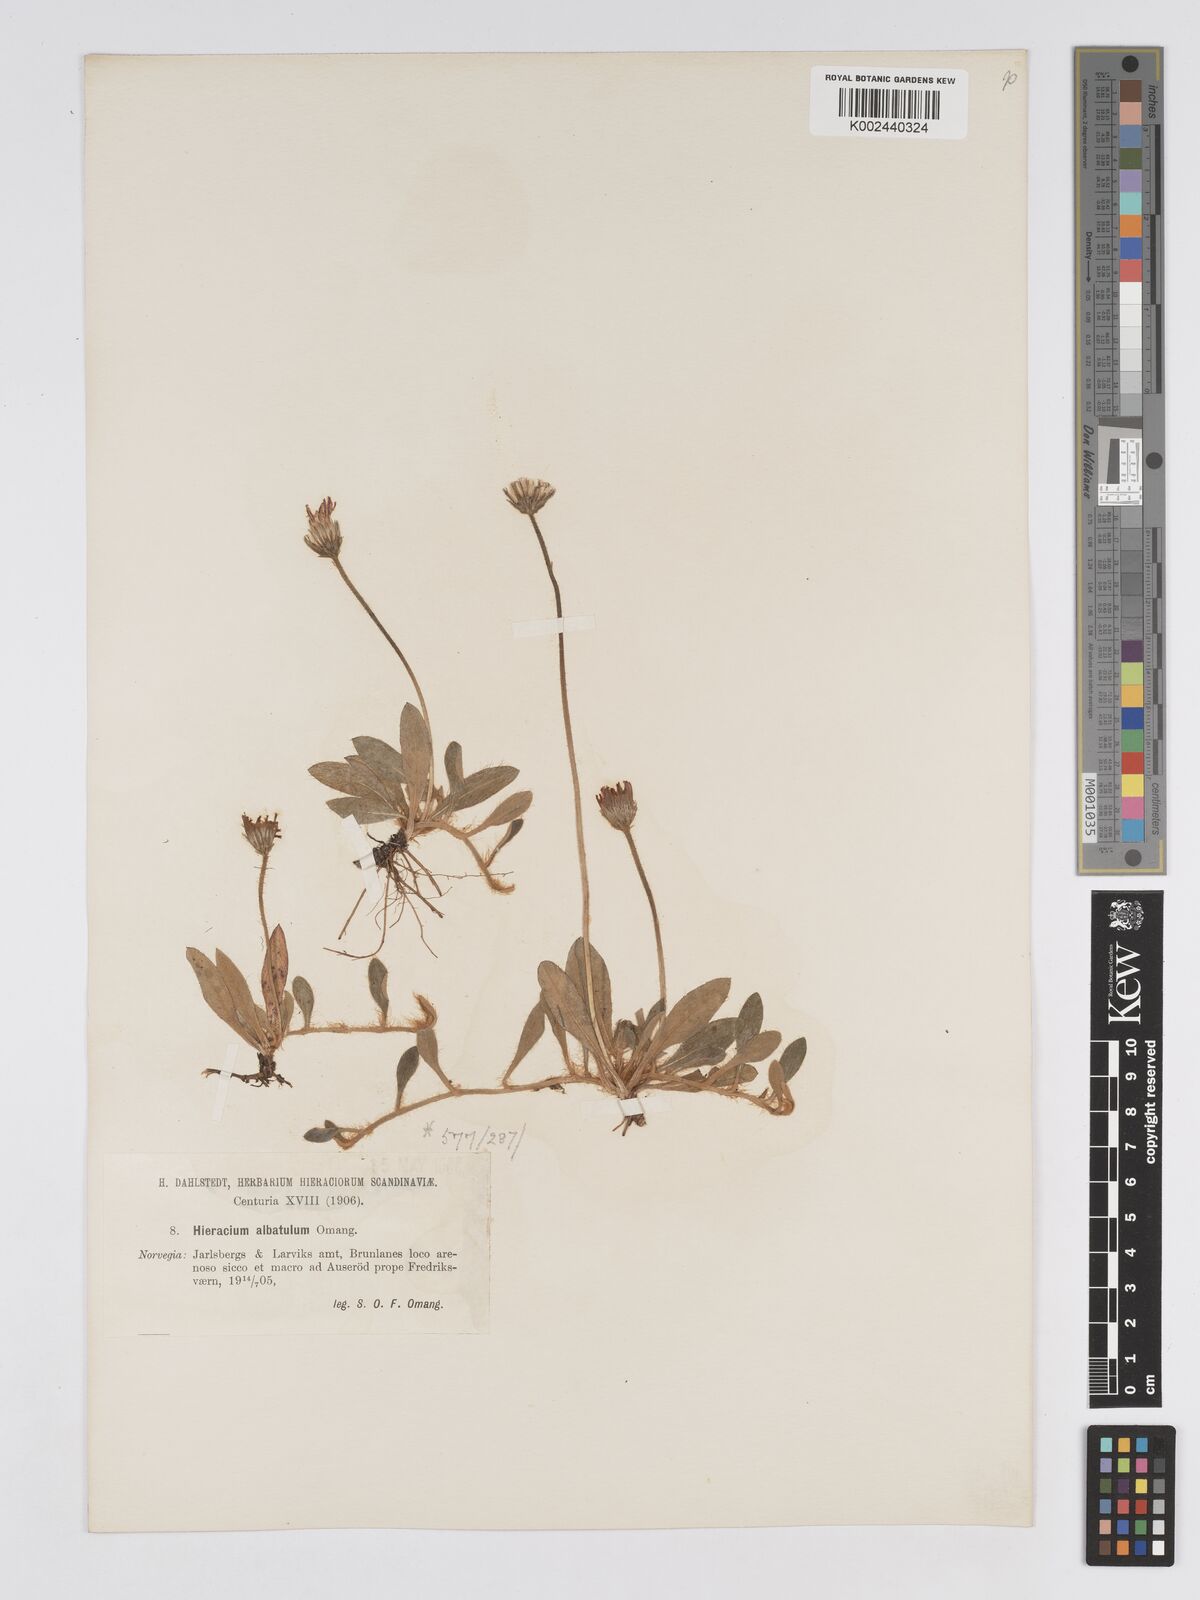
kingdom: Plantae
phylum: Tracheophyta
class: Magnoliopsida
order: Asterales
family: Asteraceae
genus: Pilosella
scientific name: Pilosella officinarum
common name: Mouse-ear hawkweed
